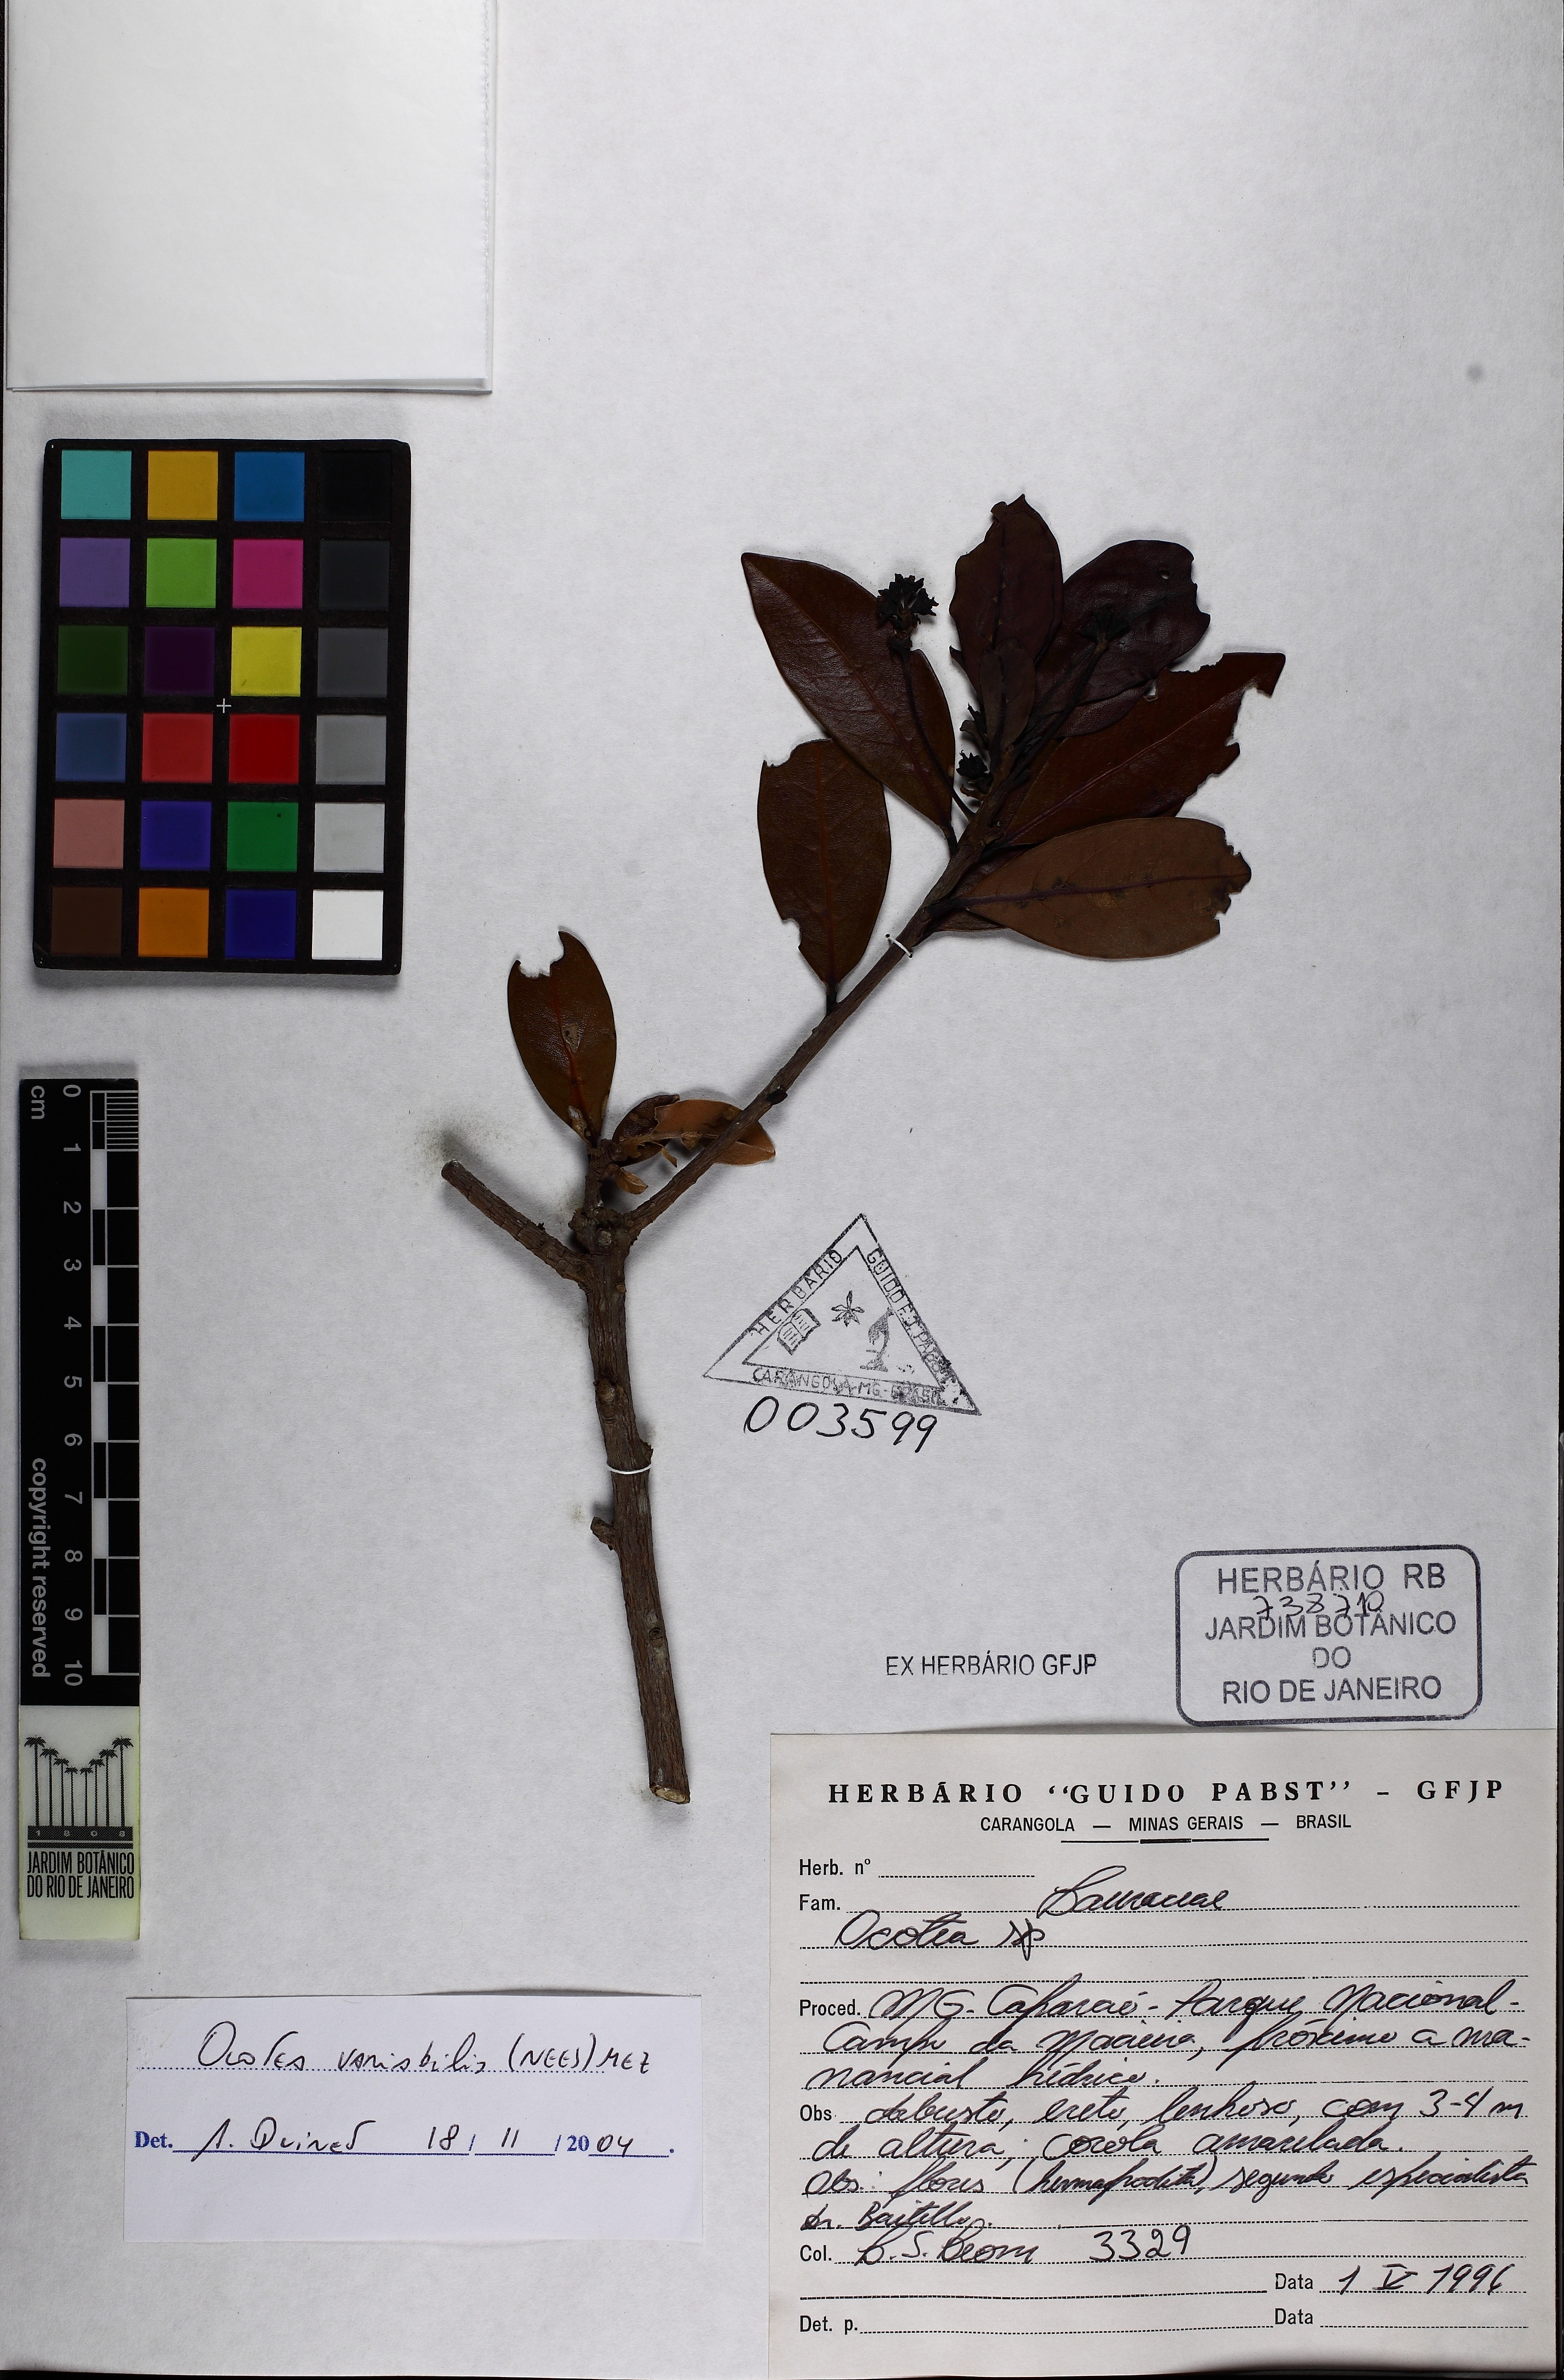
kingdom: Plantae
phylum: Tracheophyta
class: Magnoliopsida
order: Laurales
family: Lauraceae
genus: Ocotea
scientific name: Ocotea lancifolia
